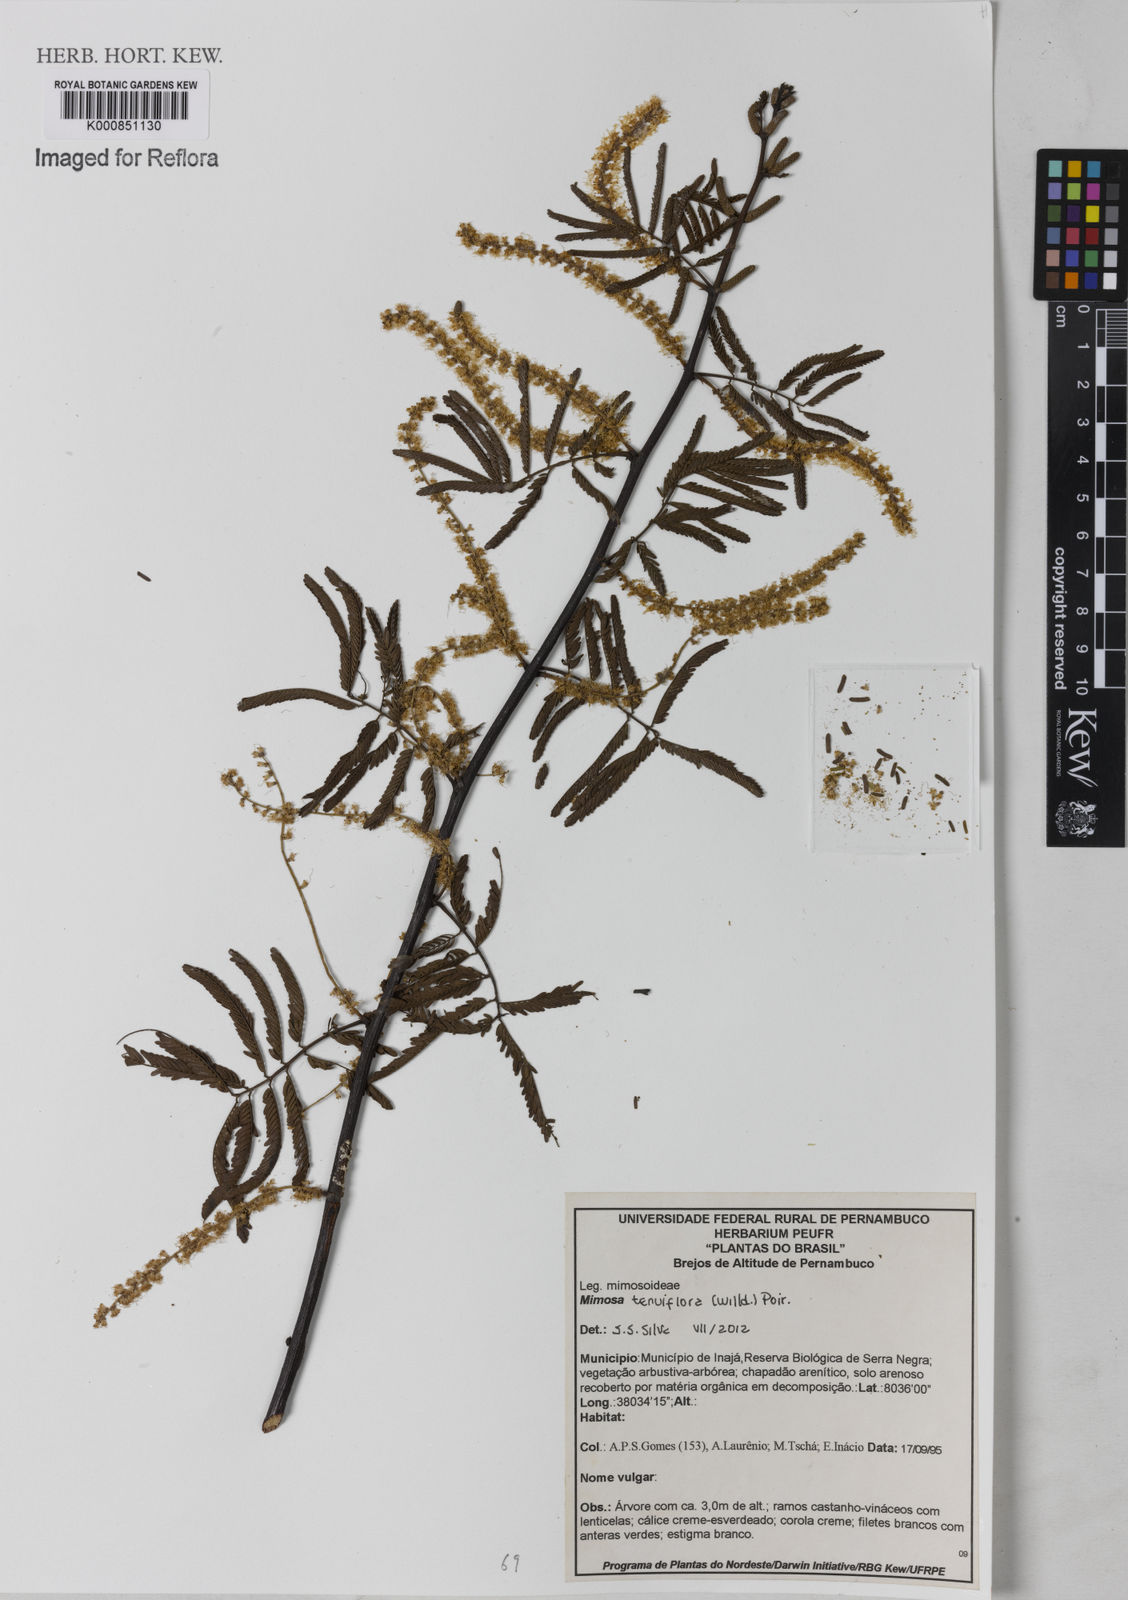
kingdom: Plantae
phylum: Tracheophyta
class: Magnoliopsida
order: Fabales
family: Fabaceae
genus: Mimosa
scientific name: Mimosa tenuiflora
